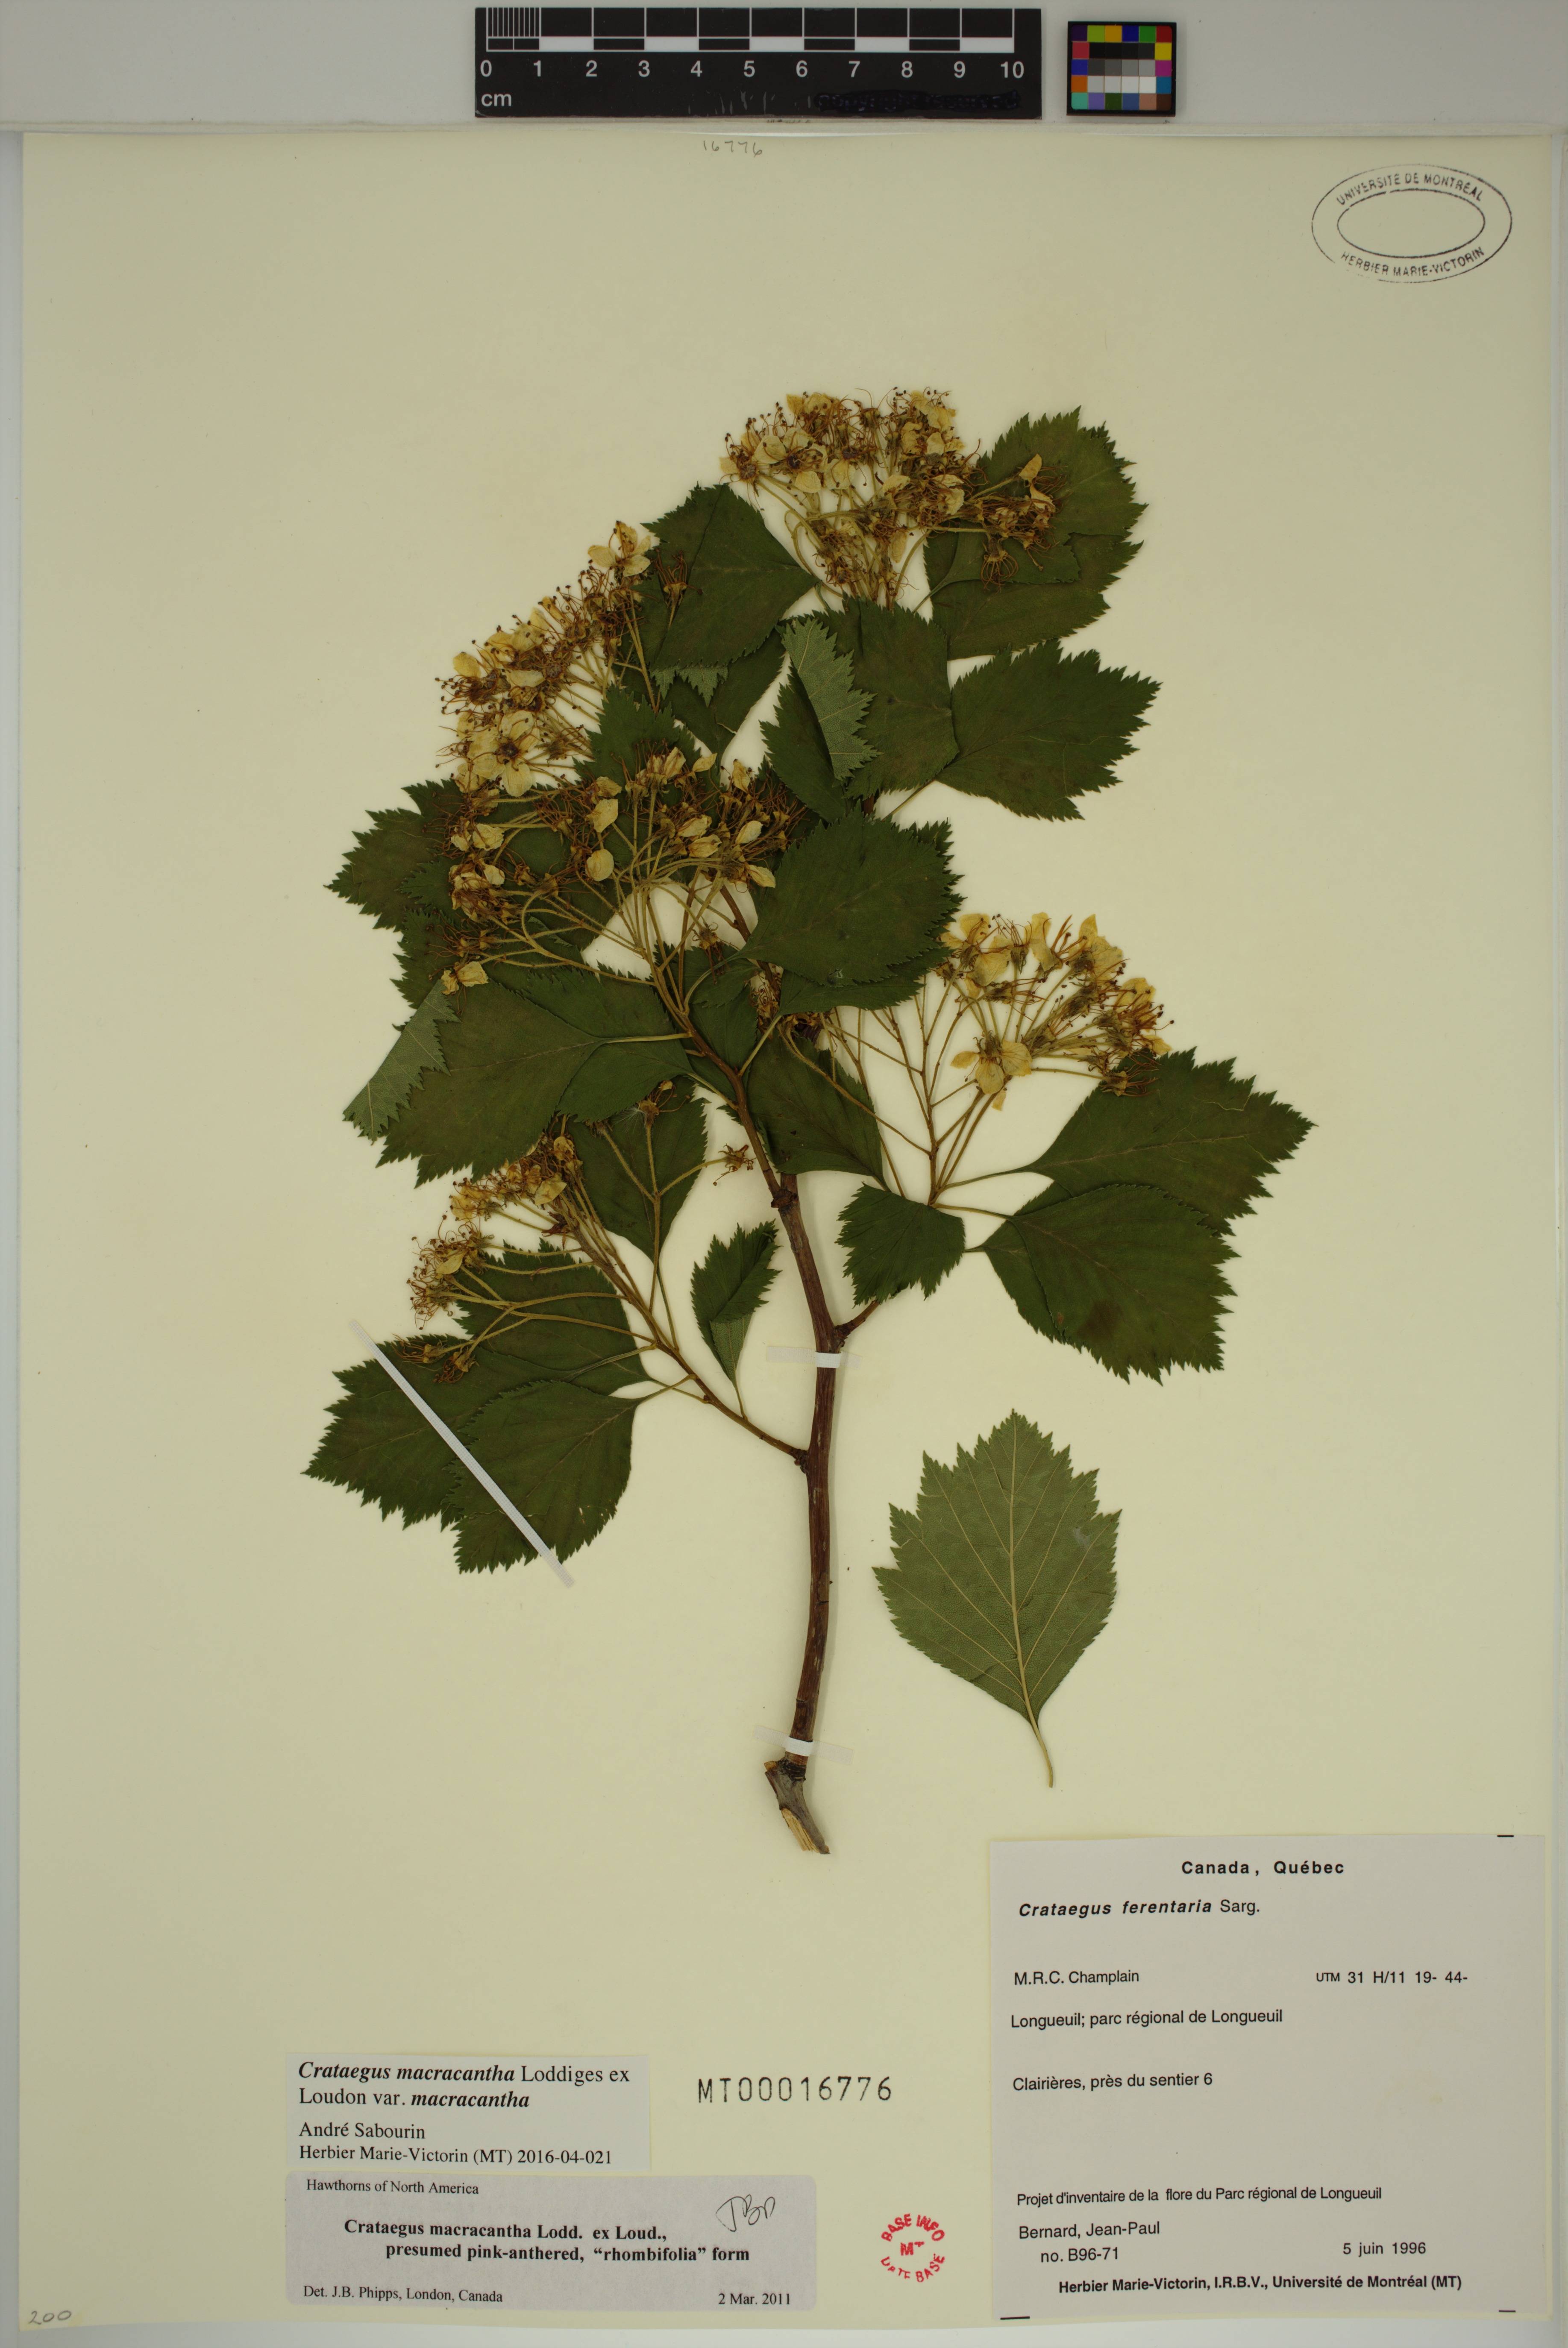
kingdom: Plantae
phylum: Tracheophyta
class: Magnoliopsida
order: Rosales
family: Rosaceae
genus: Crataegus
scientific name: Crataegus macracantha
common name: Large-thorn hawthorn
